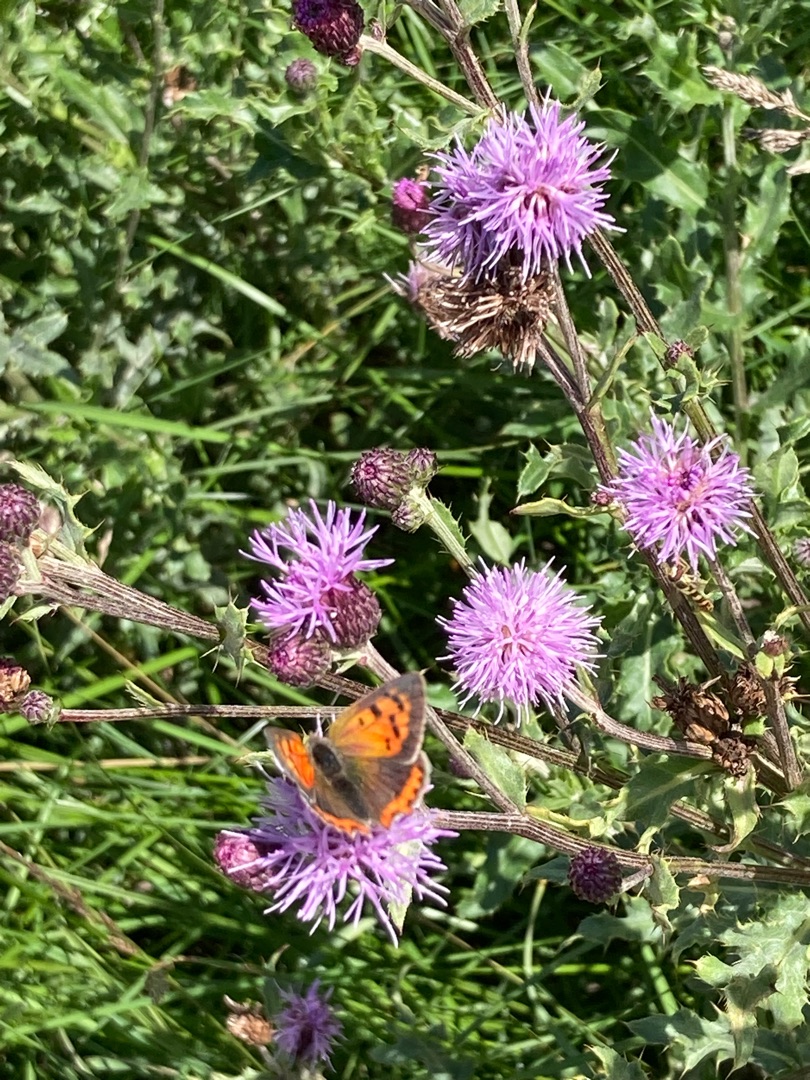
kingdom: Animalia
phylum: Arthropoda
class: Insecta
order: Lepidoptera
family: Lycaenidae
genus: Lycaena
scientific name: Lycaena phlaeas
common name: Lille ildfugl
